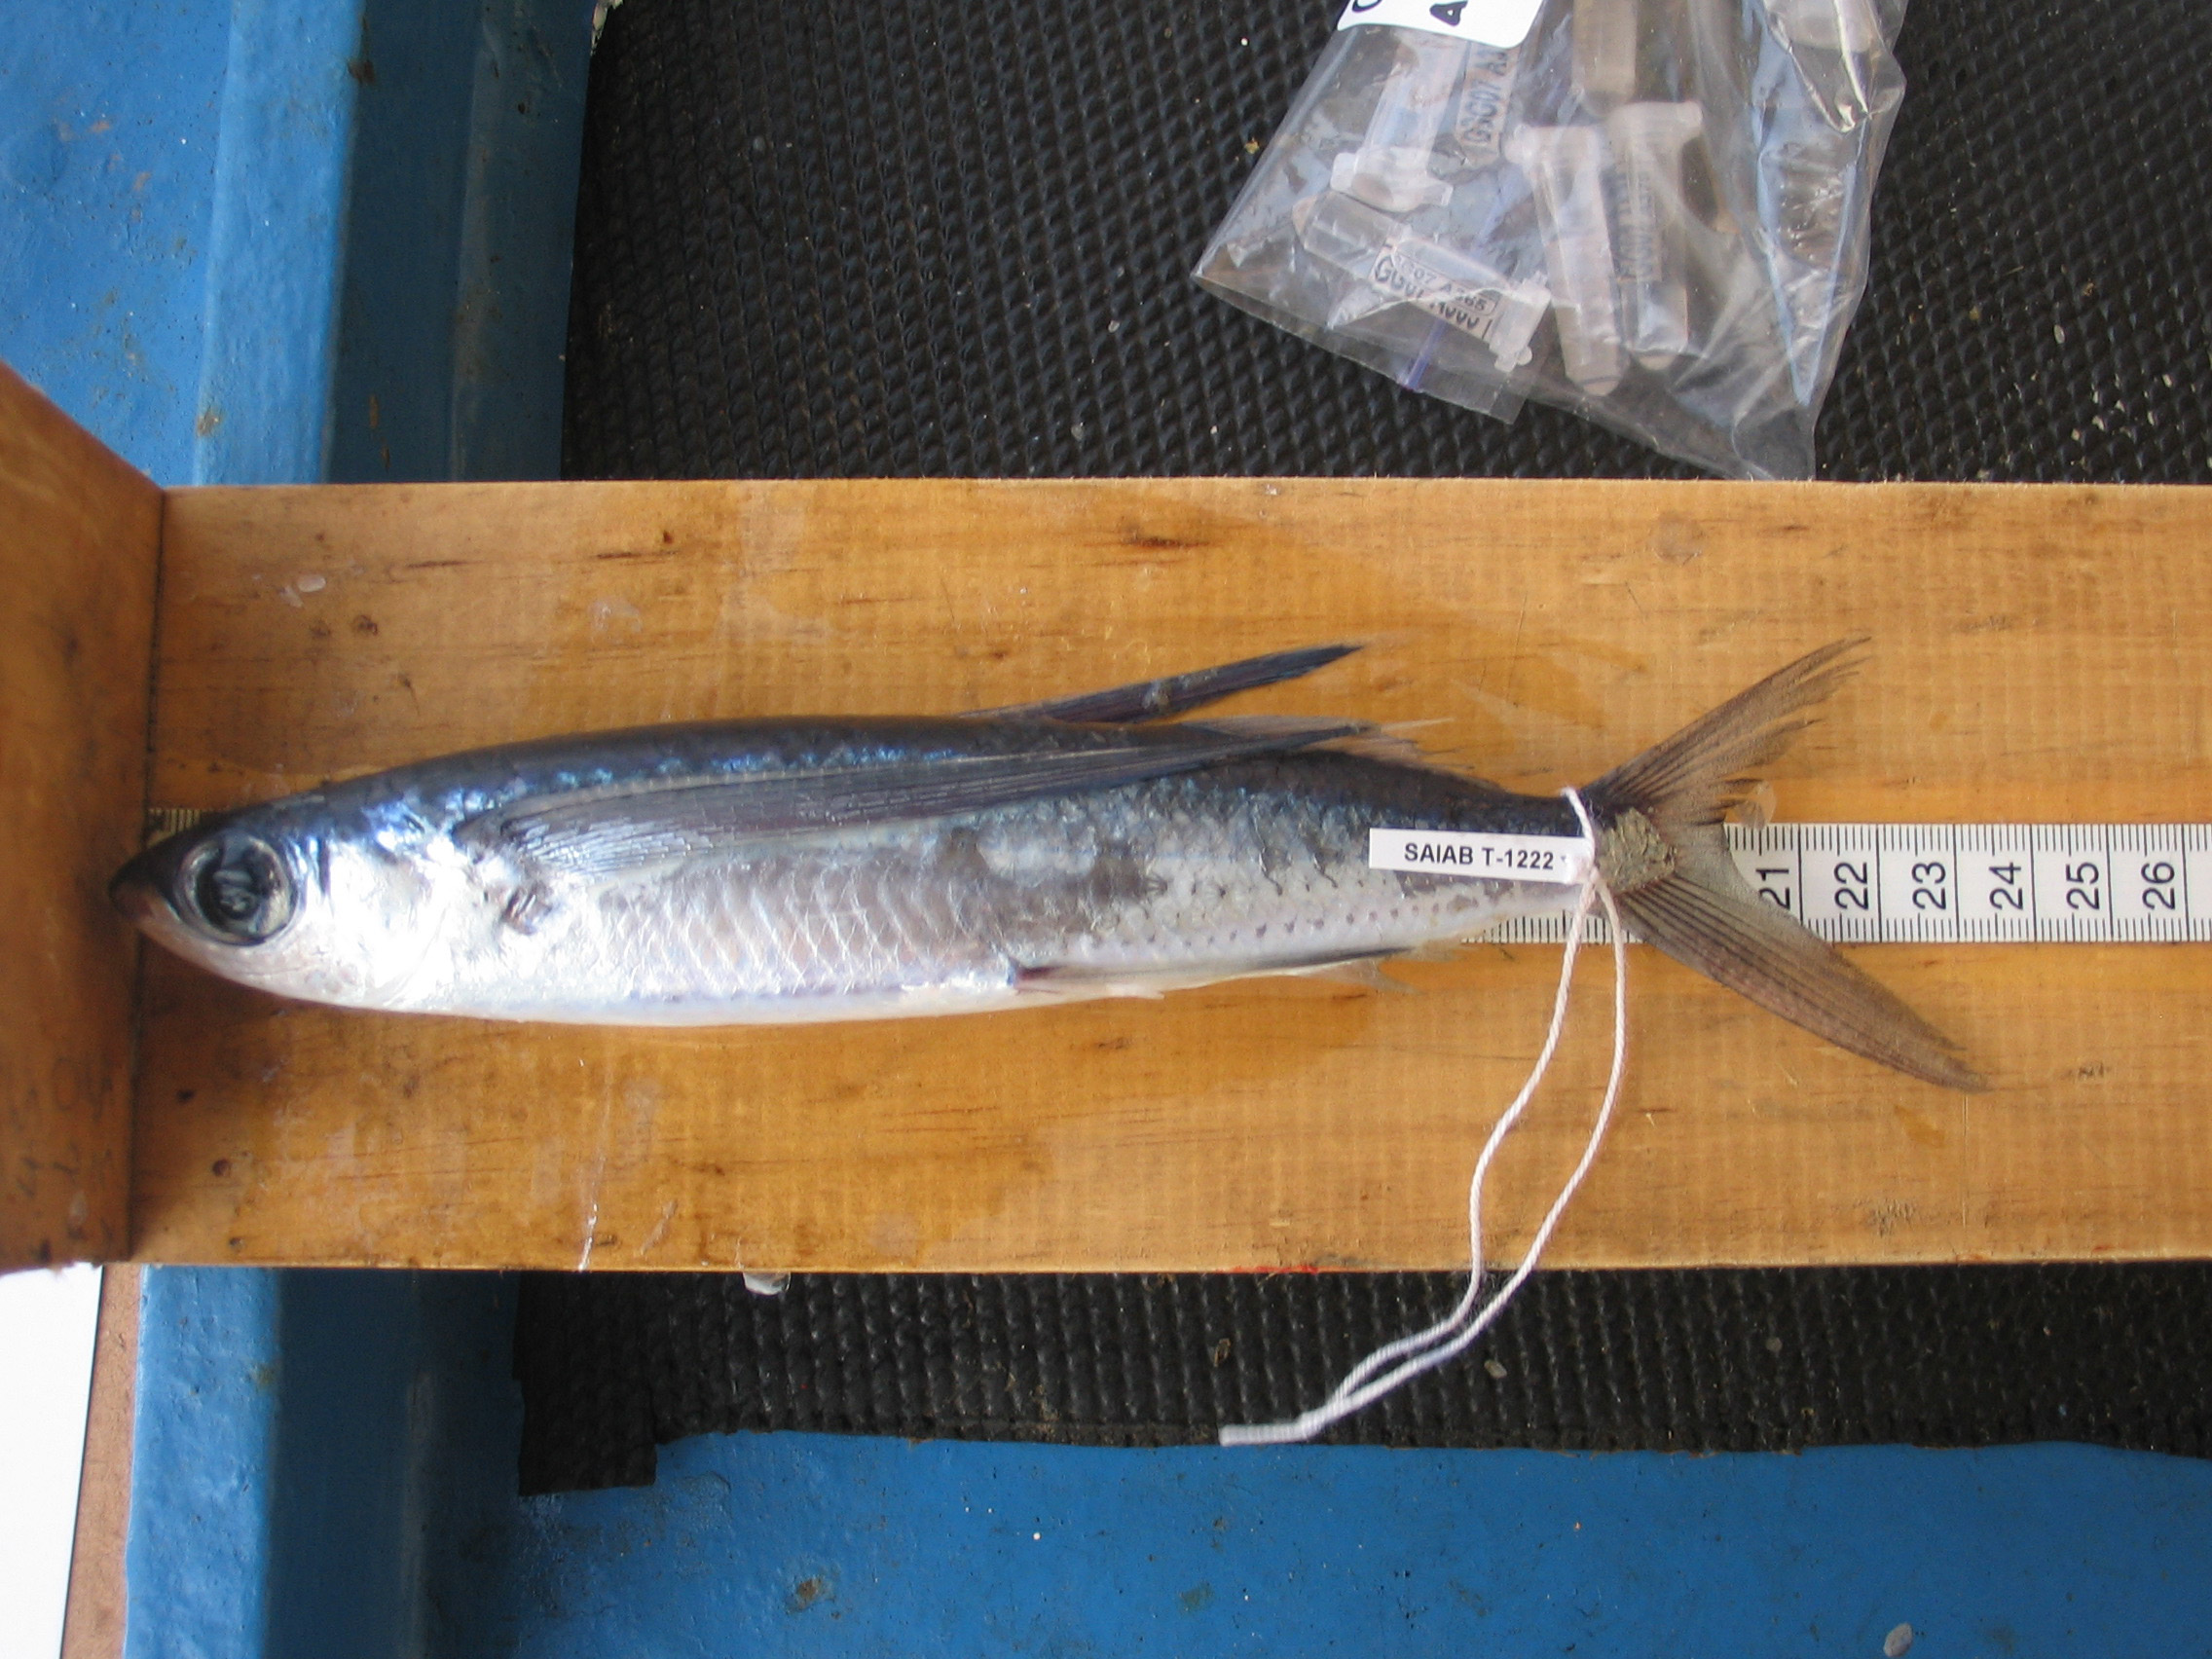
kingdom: Animalia
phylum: Chordata
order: Beloniformes
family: Exocoetidae
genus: Cheilopogon
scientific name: Cheilopogon furcatus
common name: Spotfin flyingfish
